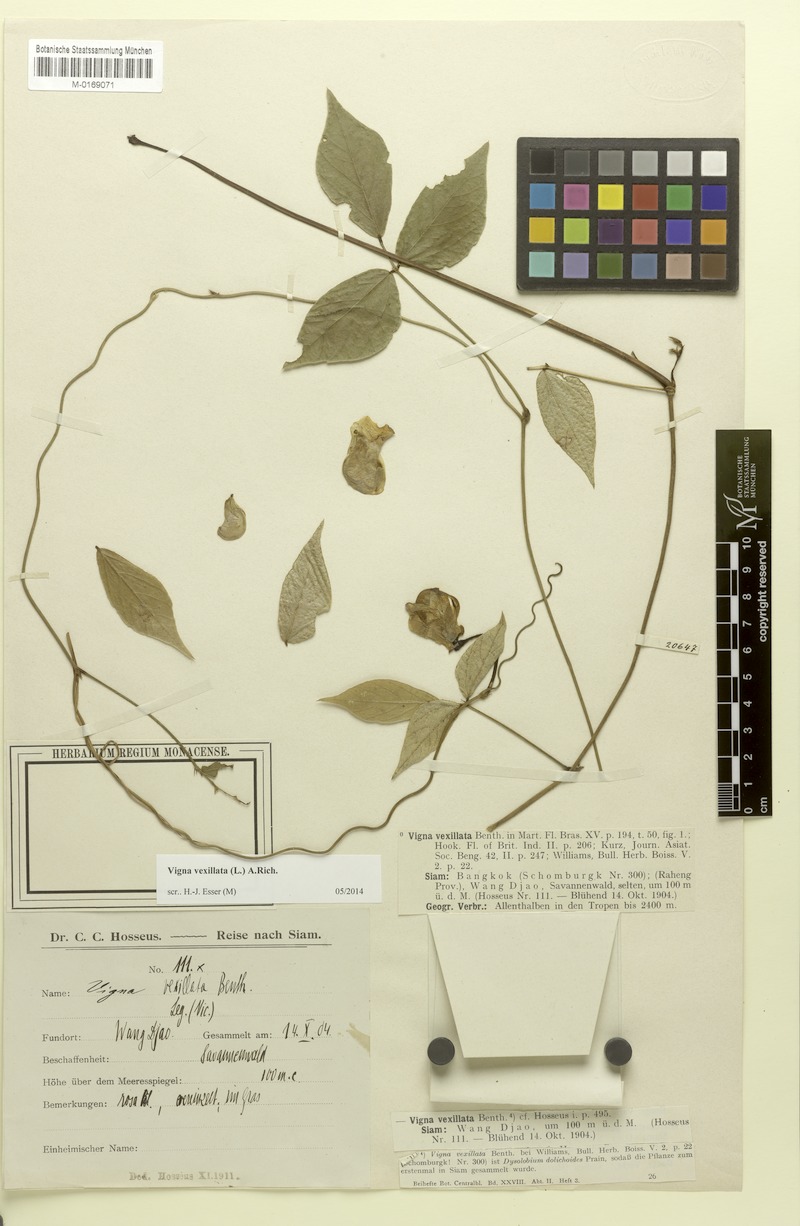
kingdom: Plantae
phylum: Tracheophyta
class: Magnoliopsida
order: Fabales
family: Fabaceae
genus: Vigna
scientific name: Vigna vexillata
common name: Zombi pea
